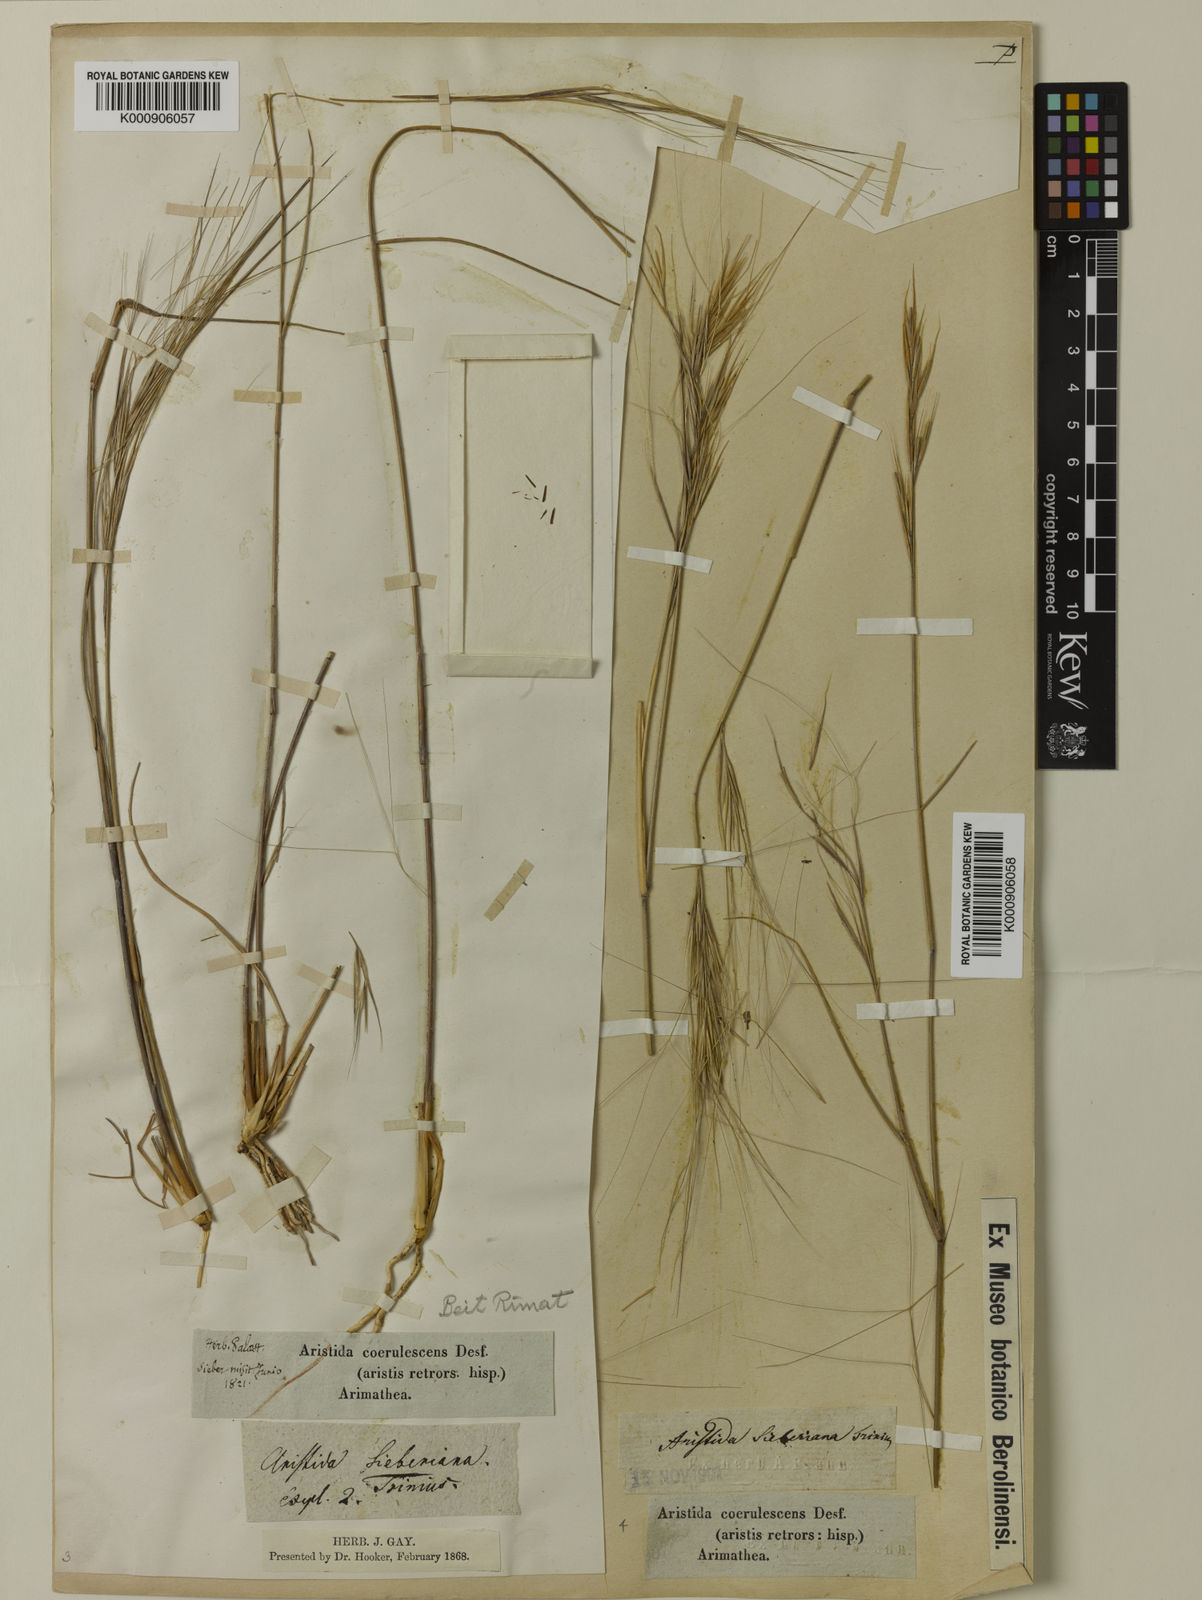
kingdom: Plantae
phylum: Tracheophyta
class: Liliopsida
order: Poales
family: Poaceae
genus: Aristida
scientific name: Aristida sieberiana
